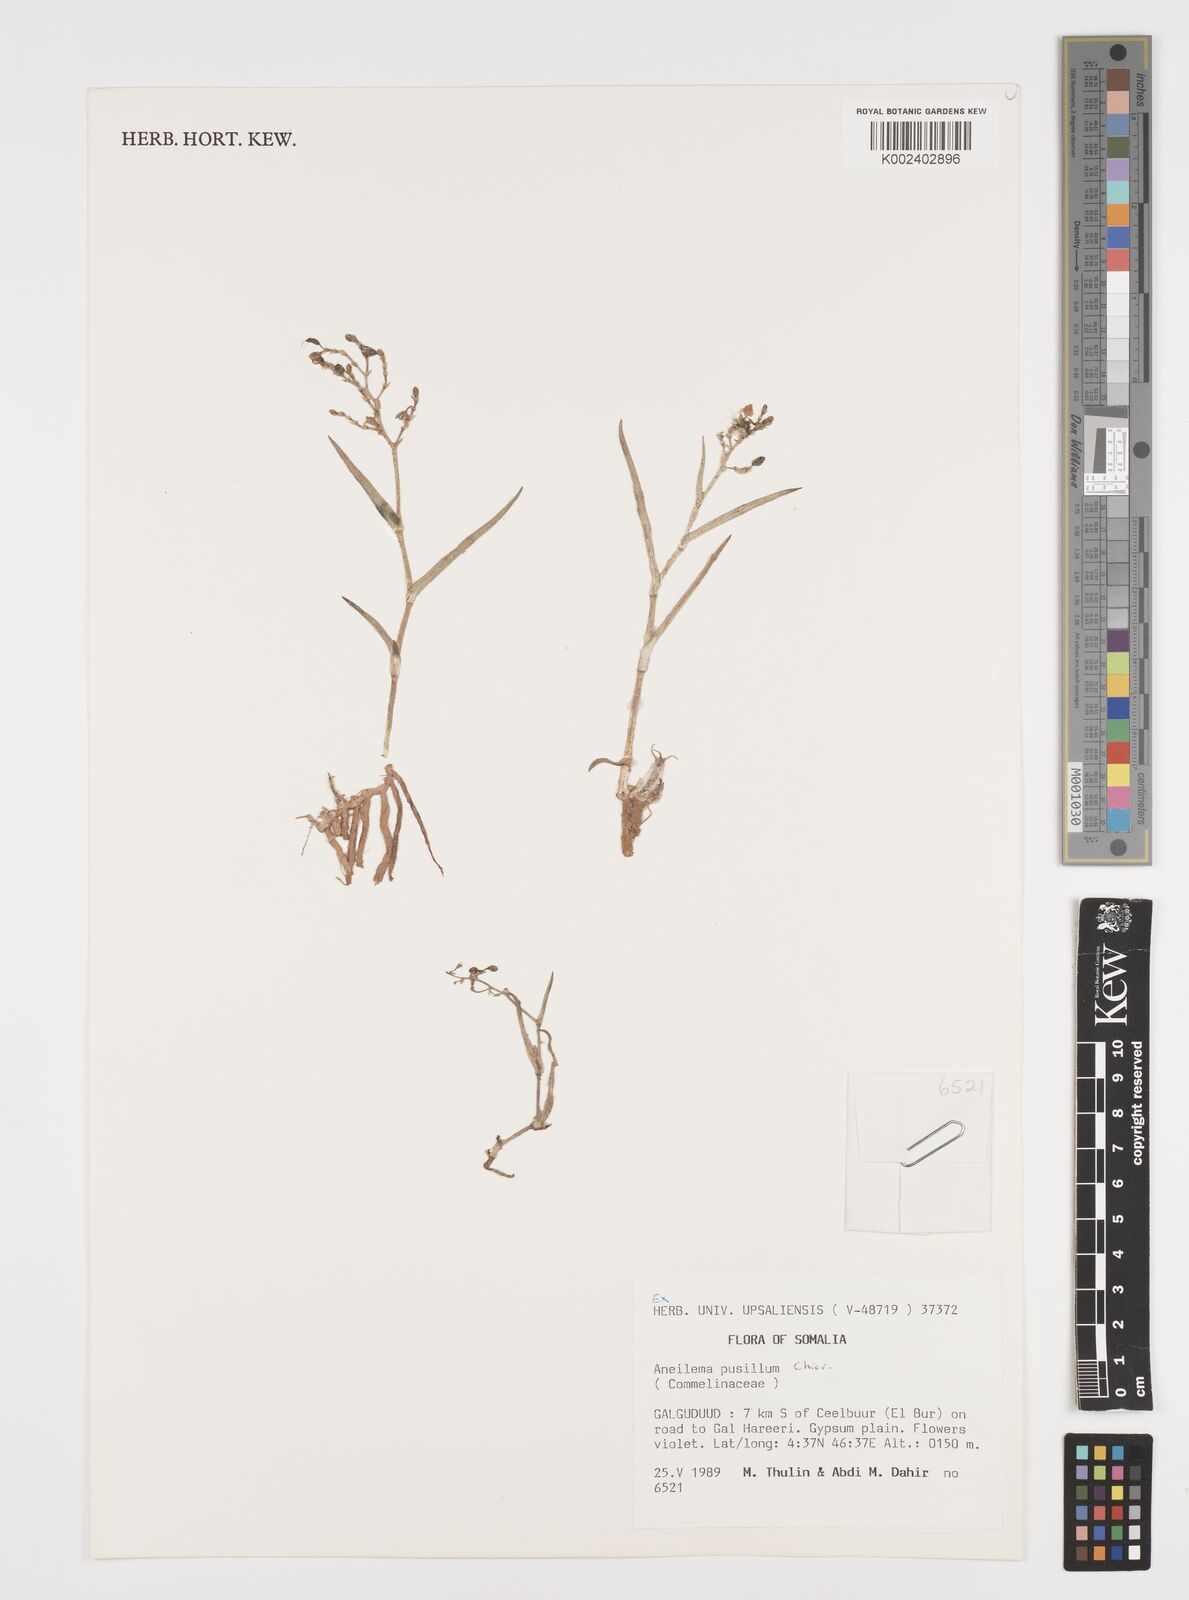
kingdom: Plantae
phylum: Tracheophyta
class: Liliopsida
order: Commelinales
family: Commelinaceae
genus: Aneilema
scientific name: Aneilema pusillum
